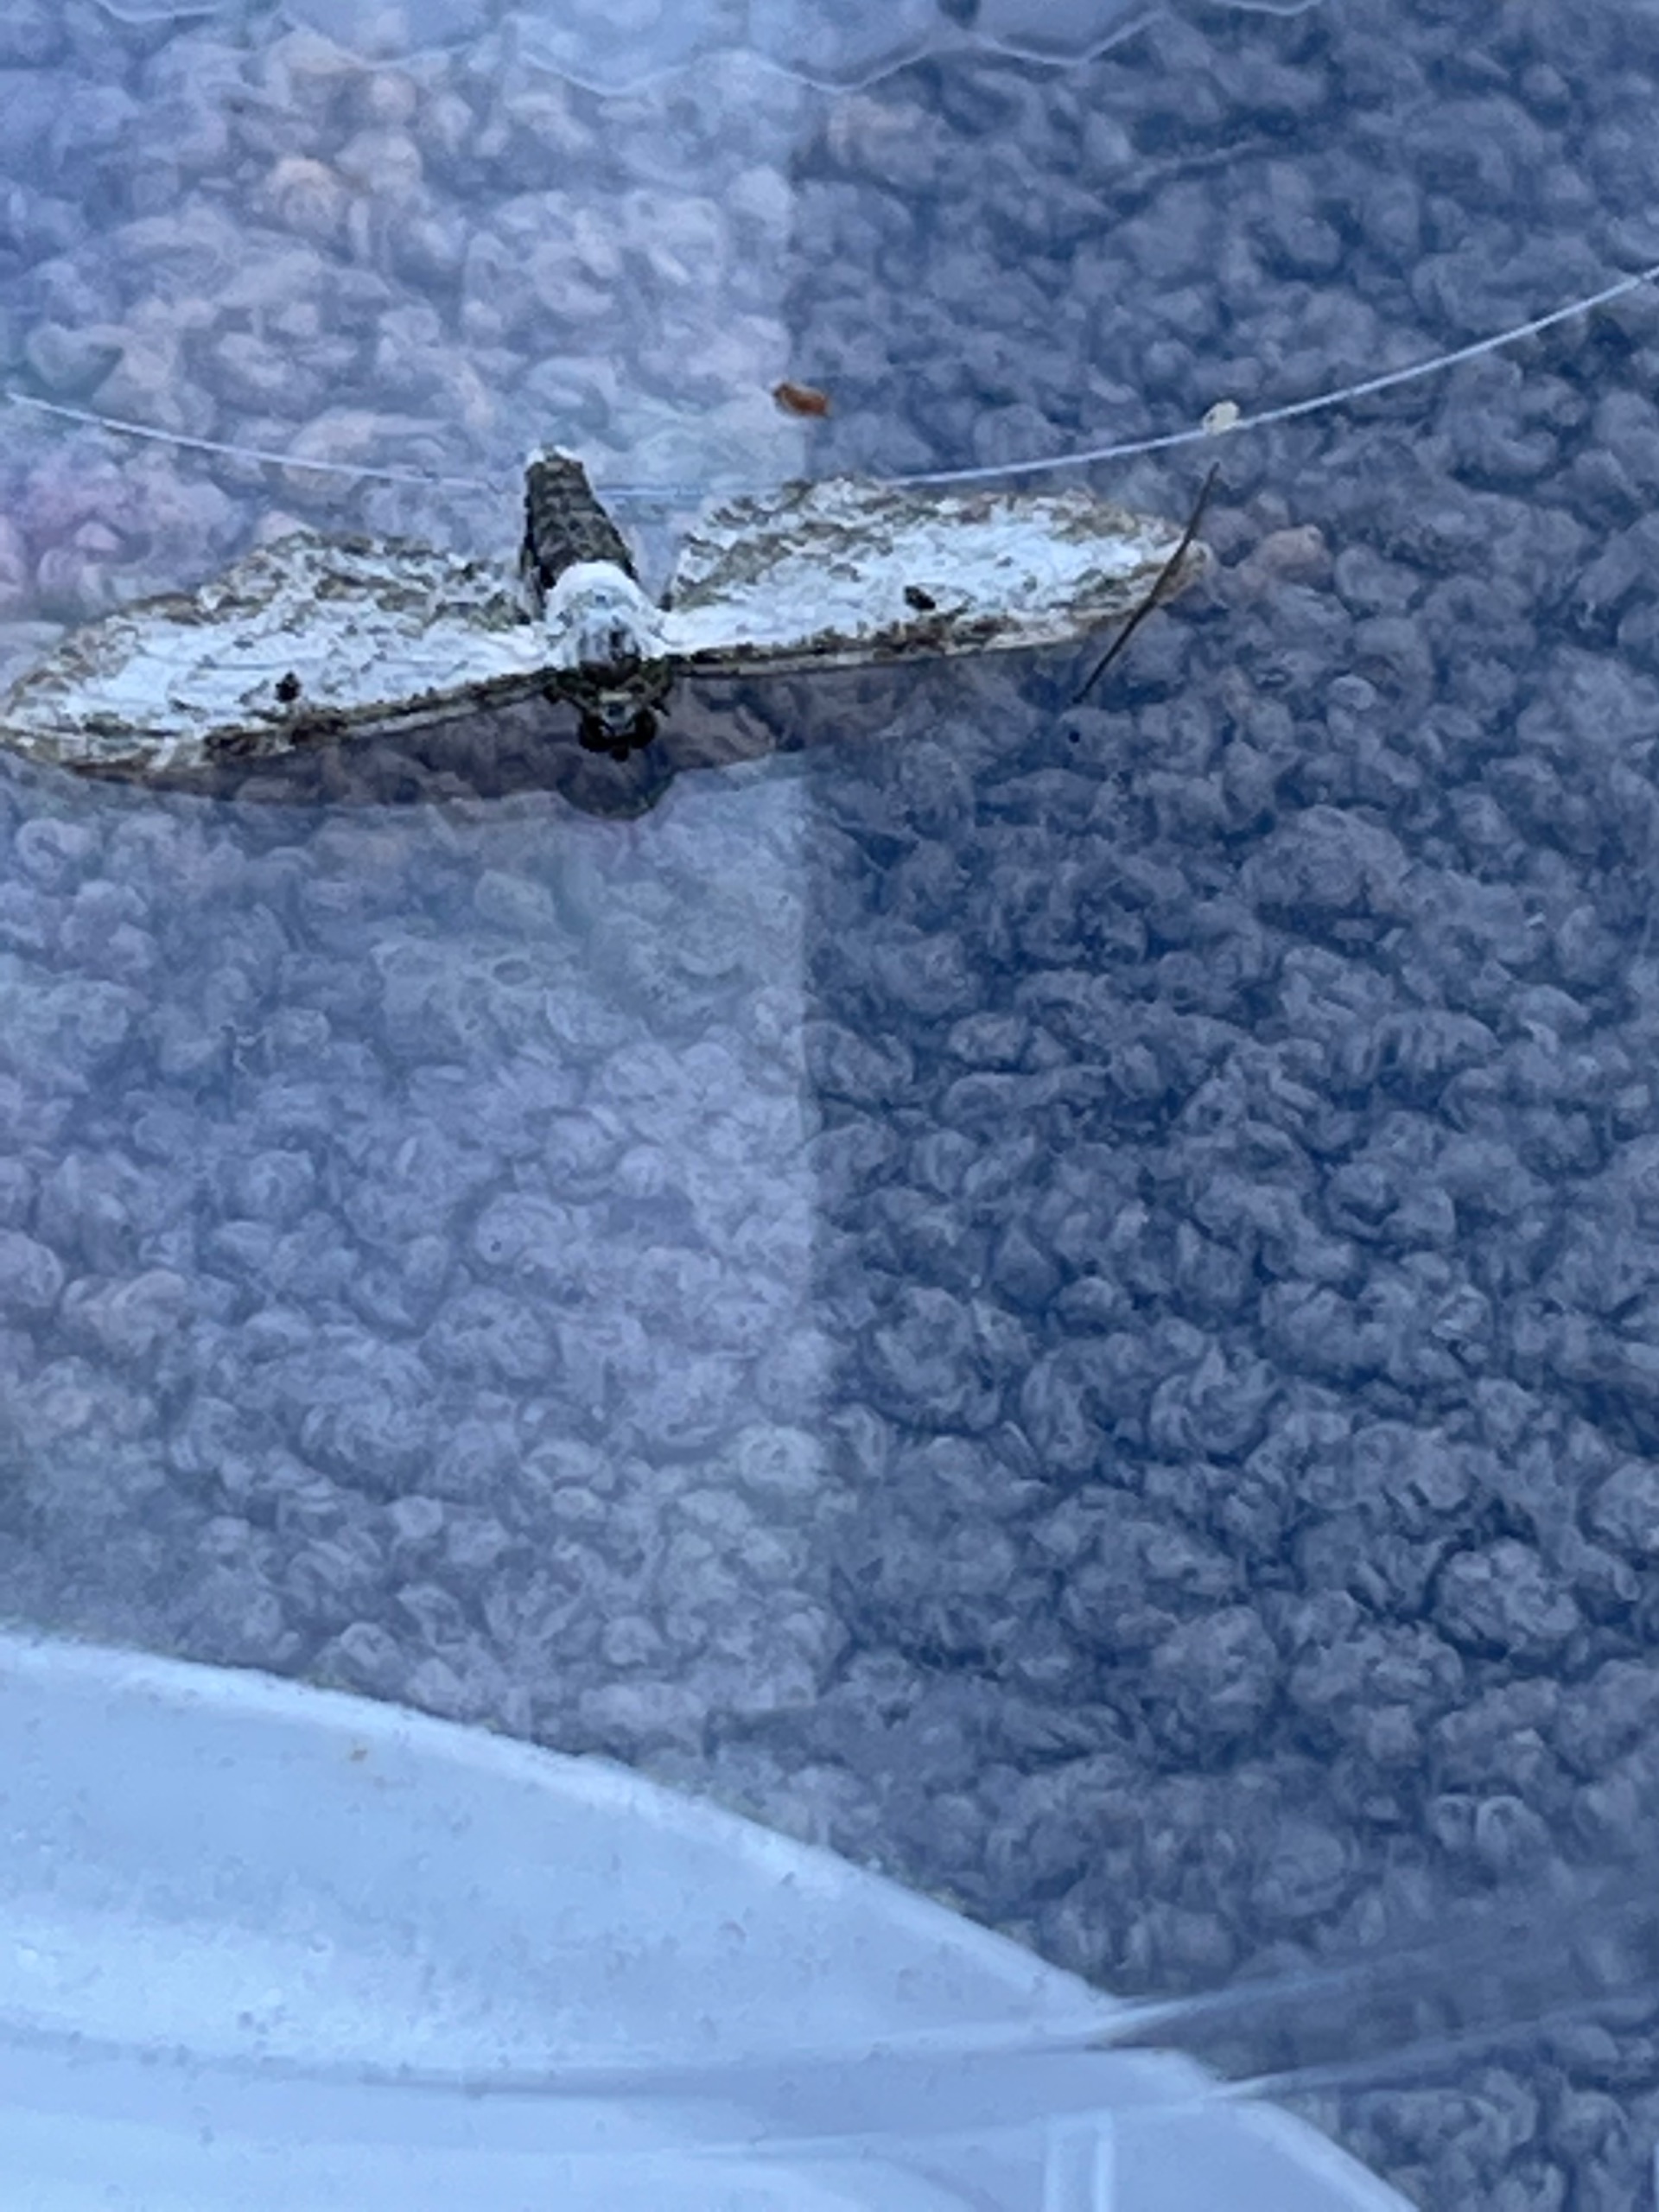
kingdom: Animalia
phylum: Arthropoda
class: Insecta
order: Lepidoptera
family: Geometridae
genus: Eupithecia
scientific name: Eupithecia centaureata
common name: Hvid dværgmåler
